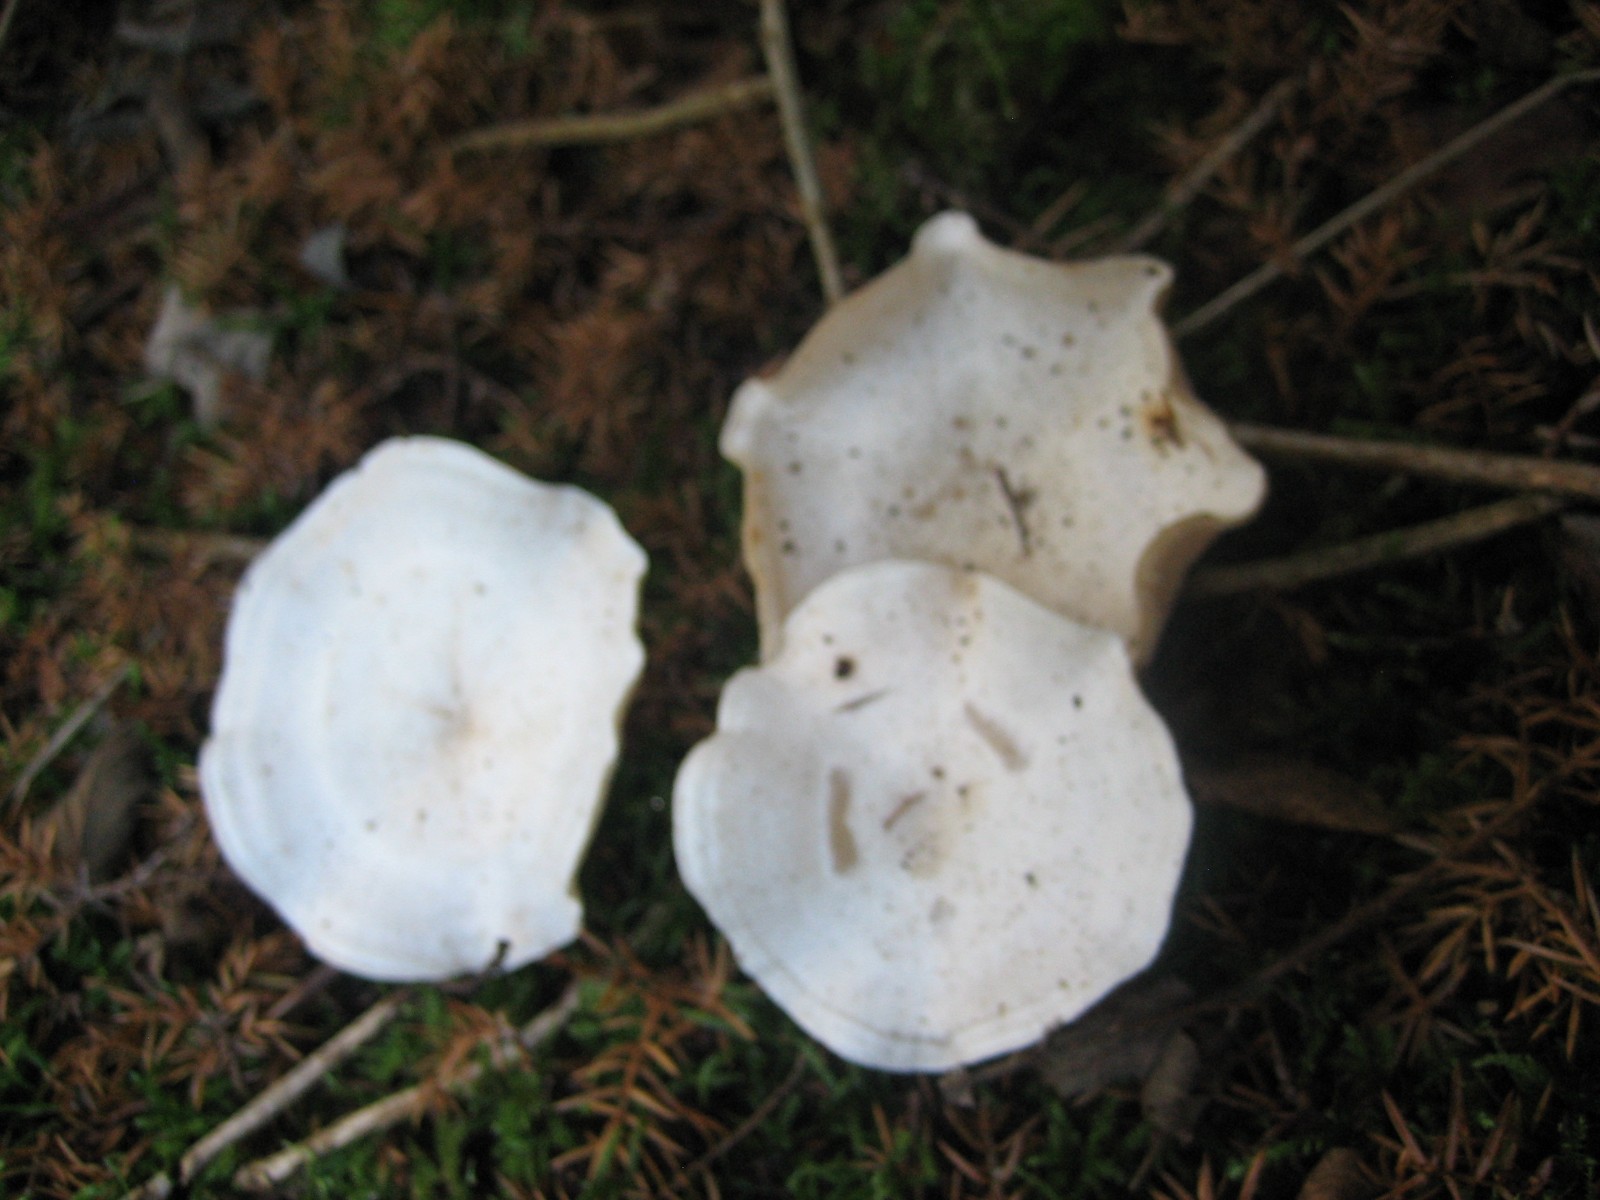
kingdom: Fungi
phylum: Basidiomycota
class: Agaricomycetes
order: Agaricales
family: Tricholomataceae
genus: Clitocybe
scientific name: Clitocybe phyllophila
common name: løv-tragthat
